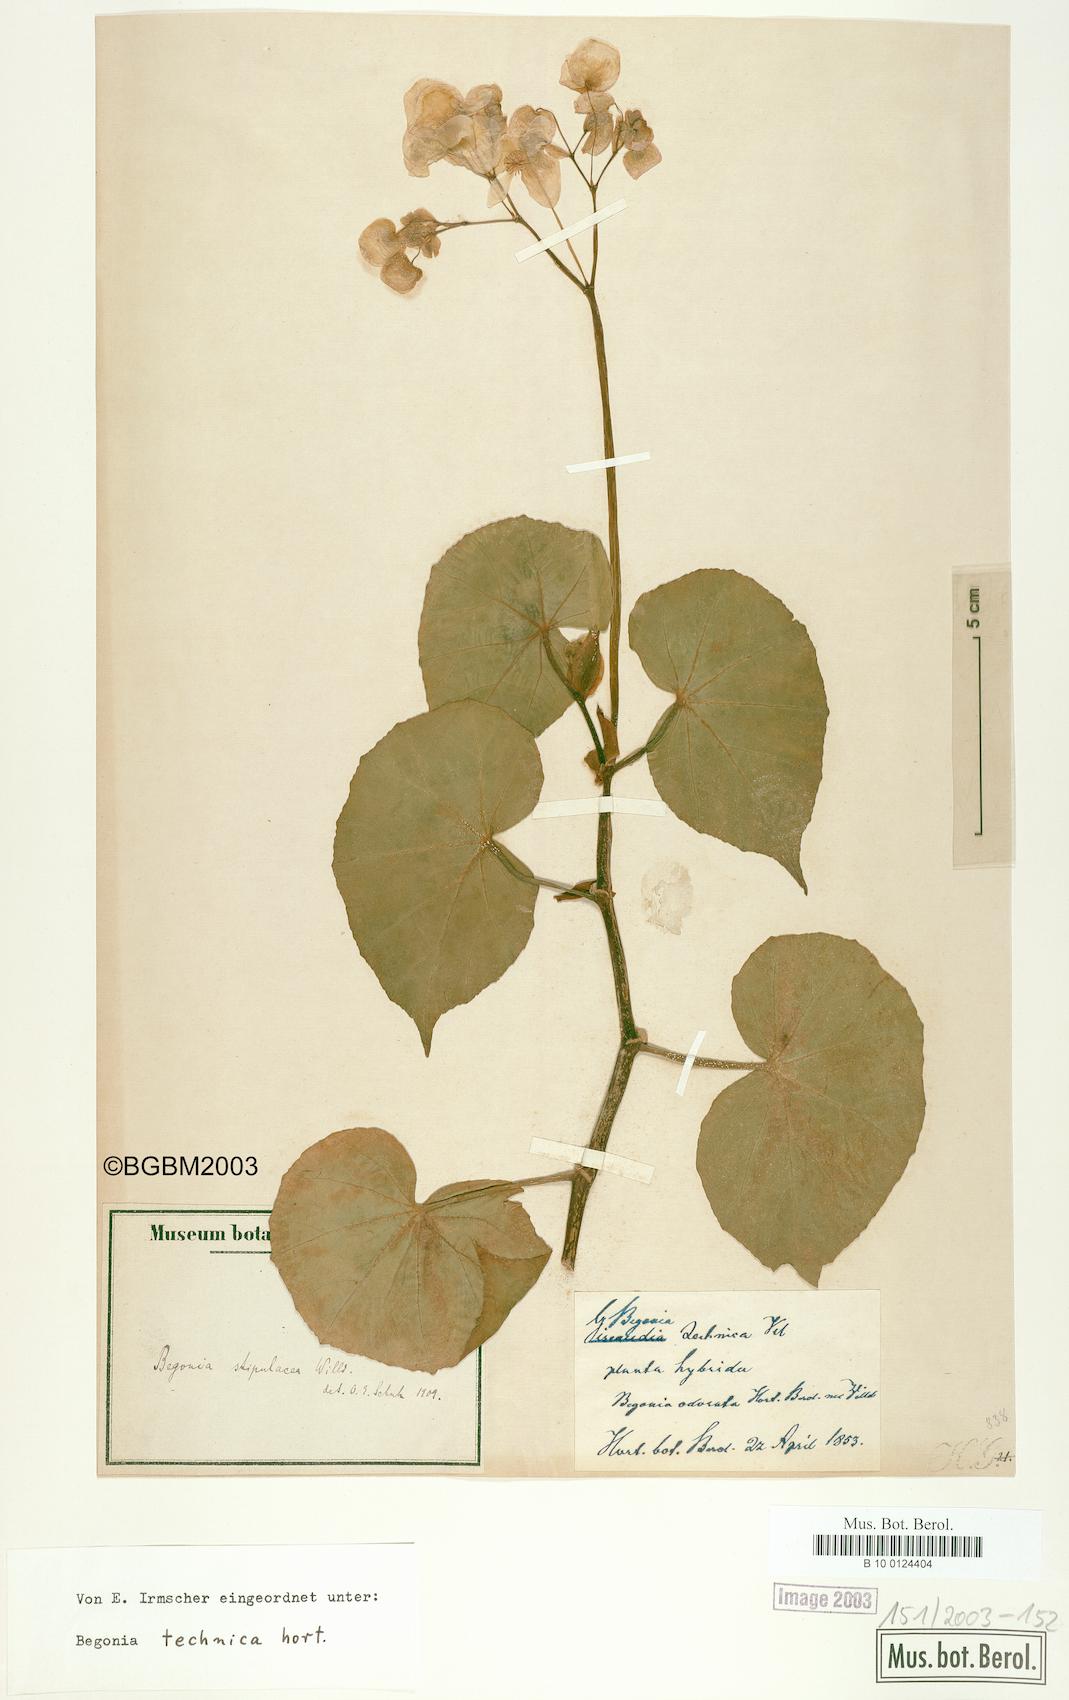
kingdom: Plantae
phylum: Tracheophyta
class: Magnoliopsida
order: Cucurbitales
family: Begoniaceae
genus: Begonia
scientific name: Begonia stipularis
